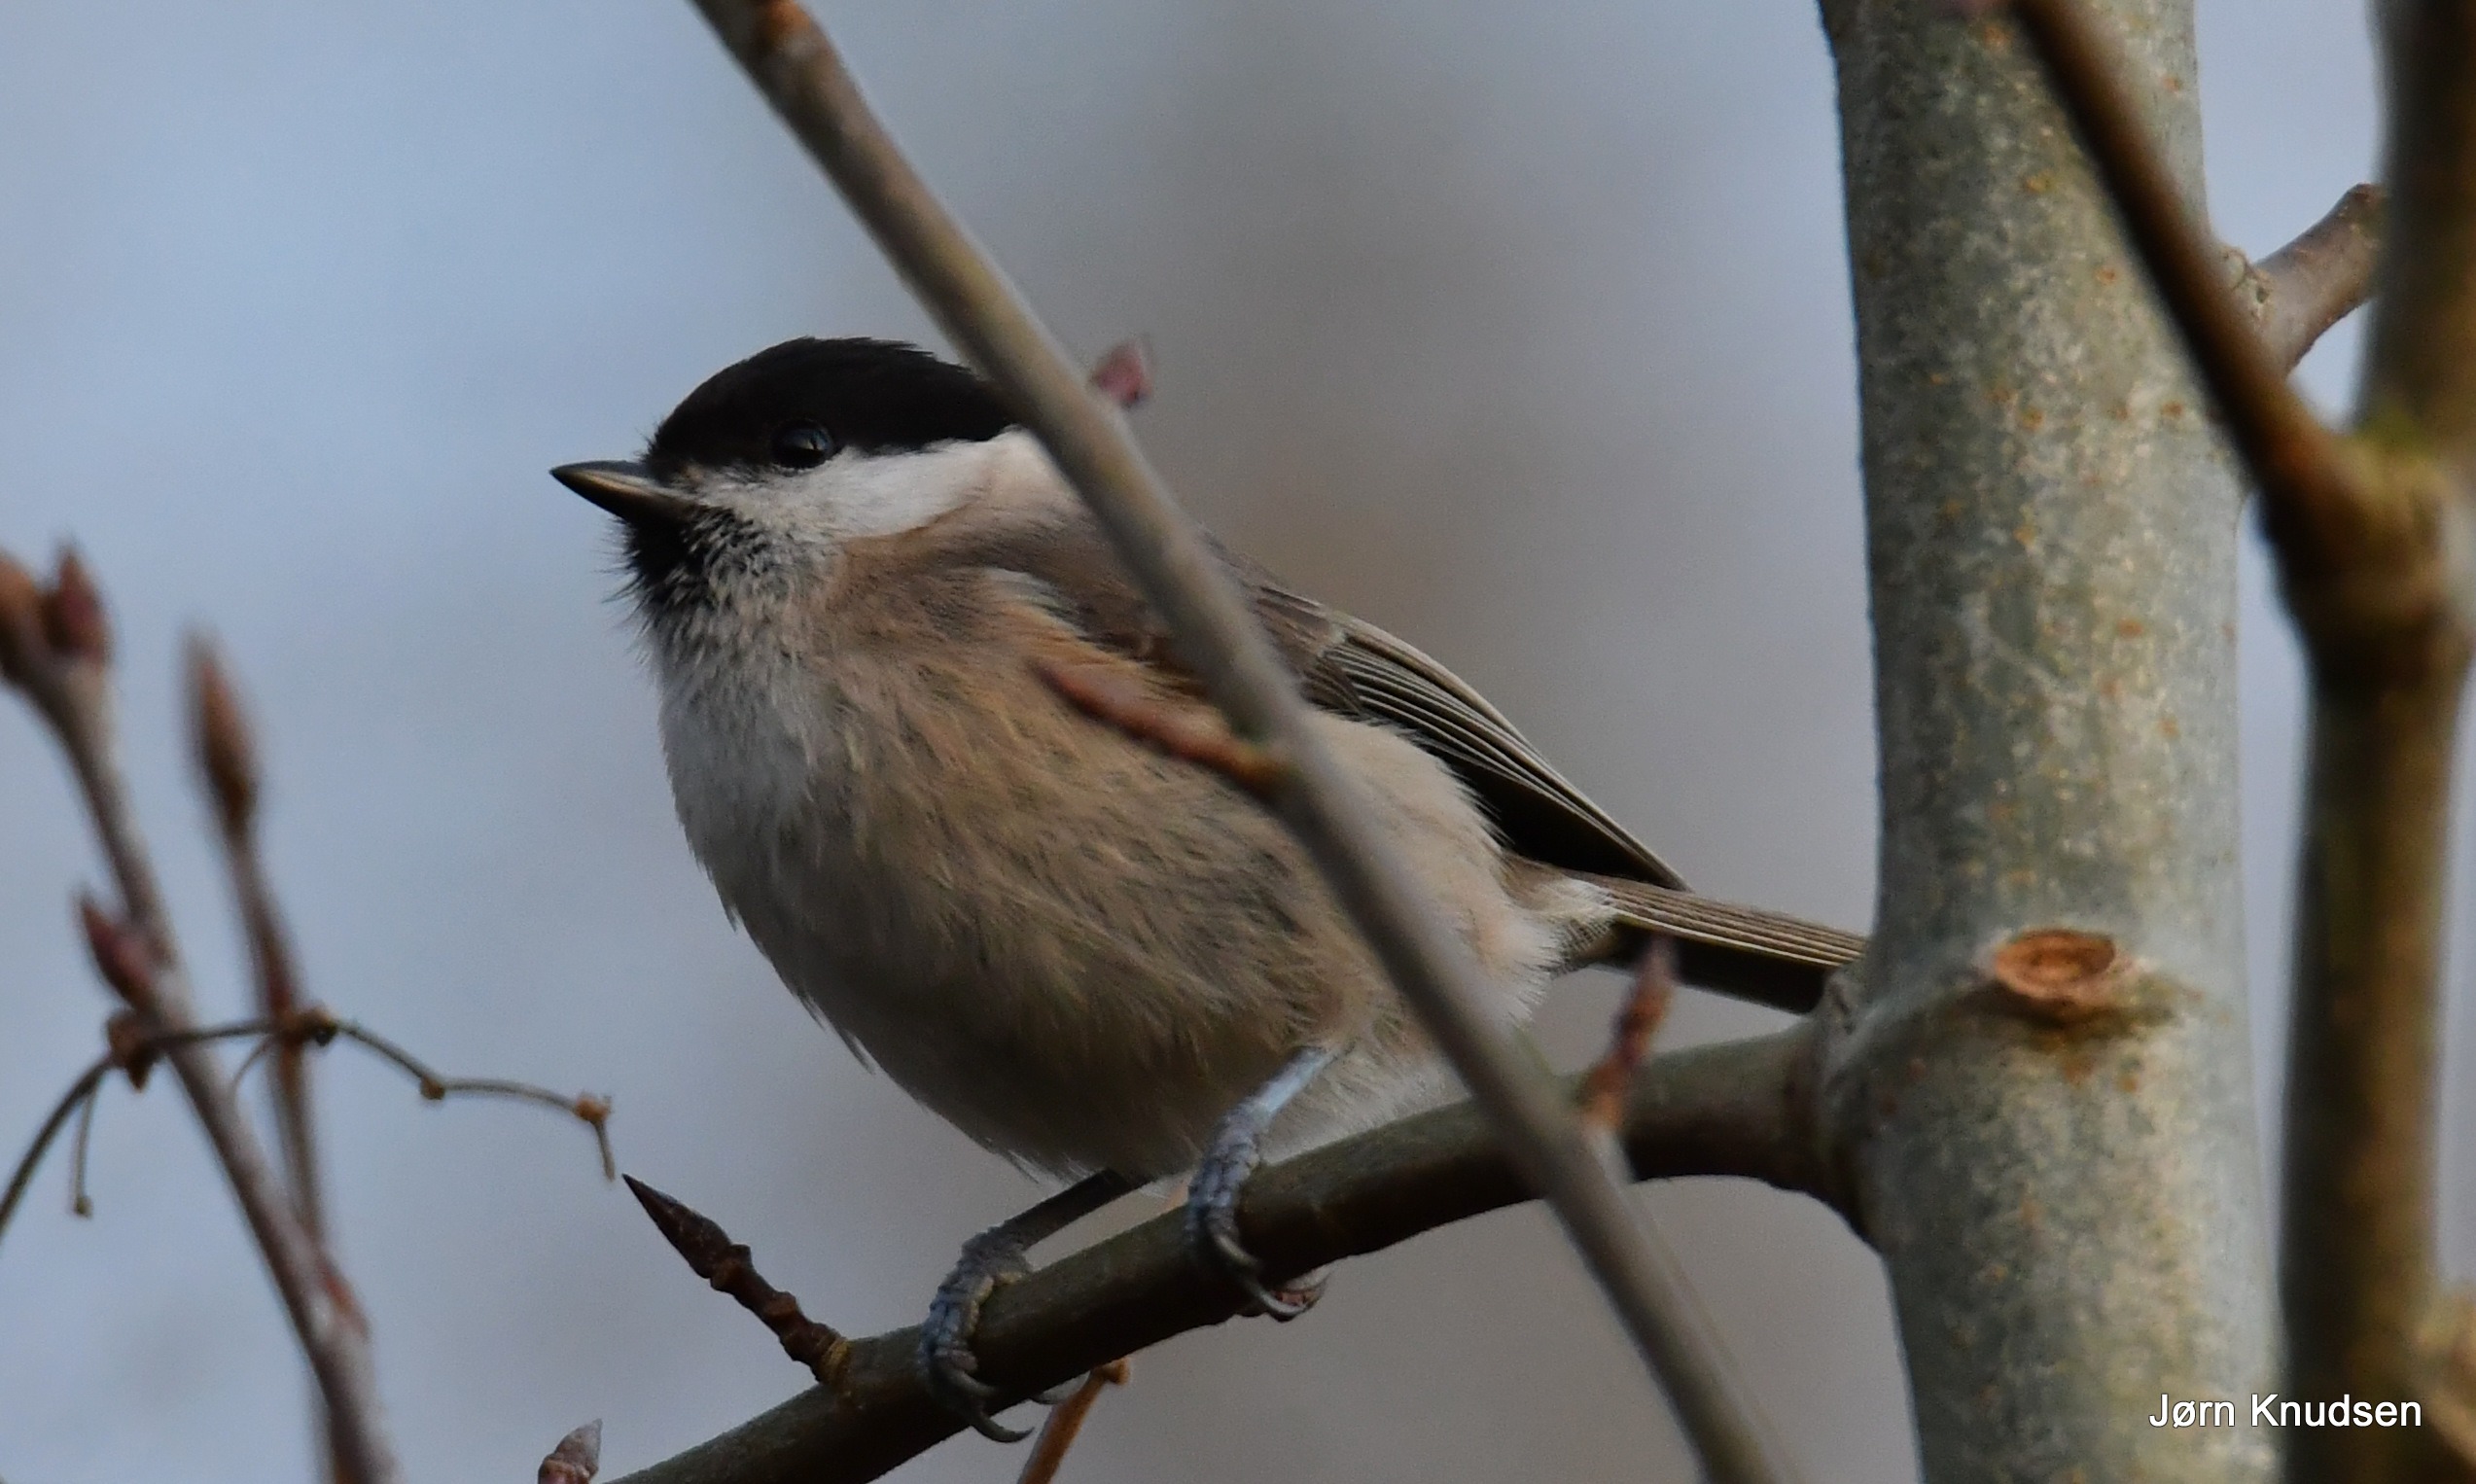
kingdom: Animalia
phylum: Chordata
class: Aves
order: Passeriformes
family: Paridae
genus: Poecile
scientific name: Poecile palustris
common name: Sumpmejse
